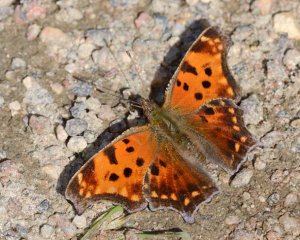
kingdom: Animalia
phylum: Arthropoda
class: Insecta
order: Lepidoptera
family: Nymphalidae
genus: Polygonia
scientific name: Polygonia comma
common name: Eastern Comma
